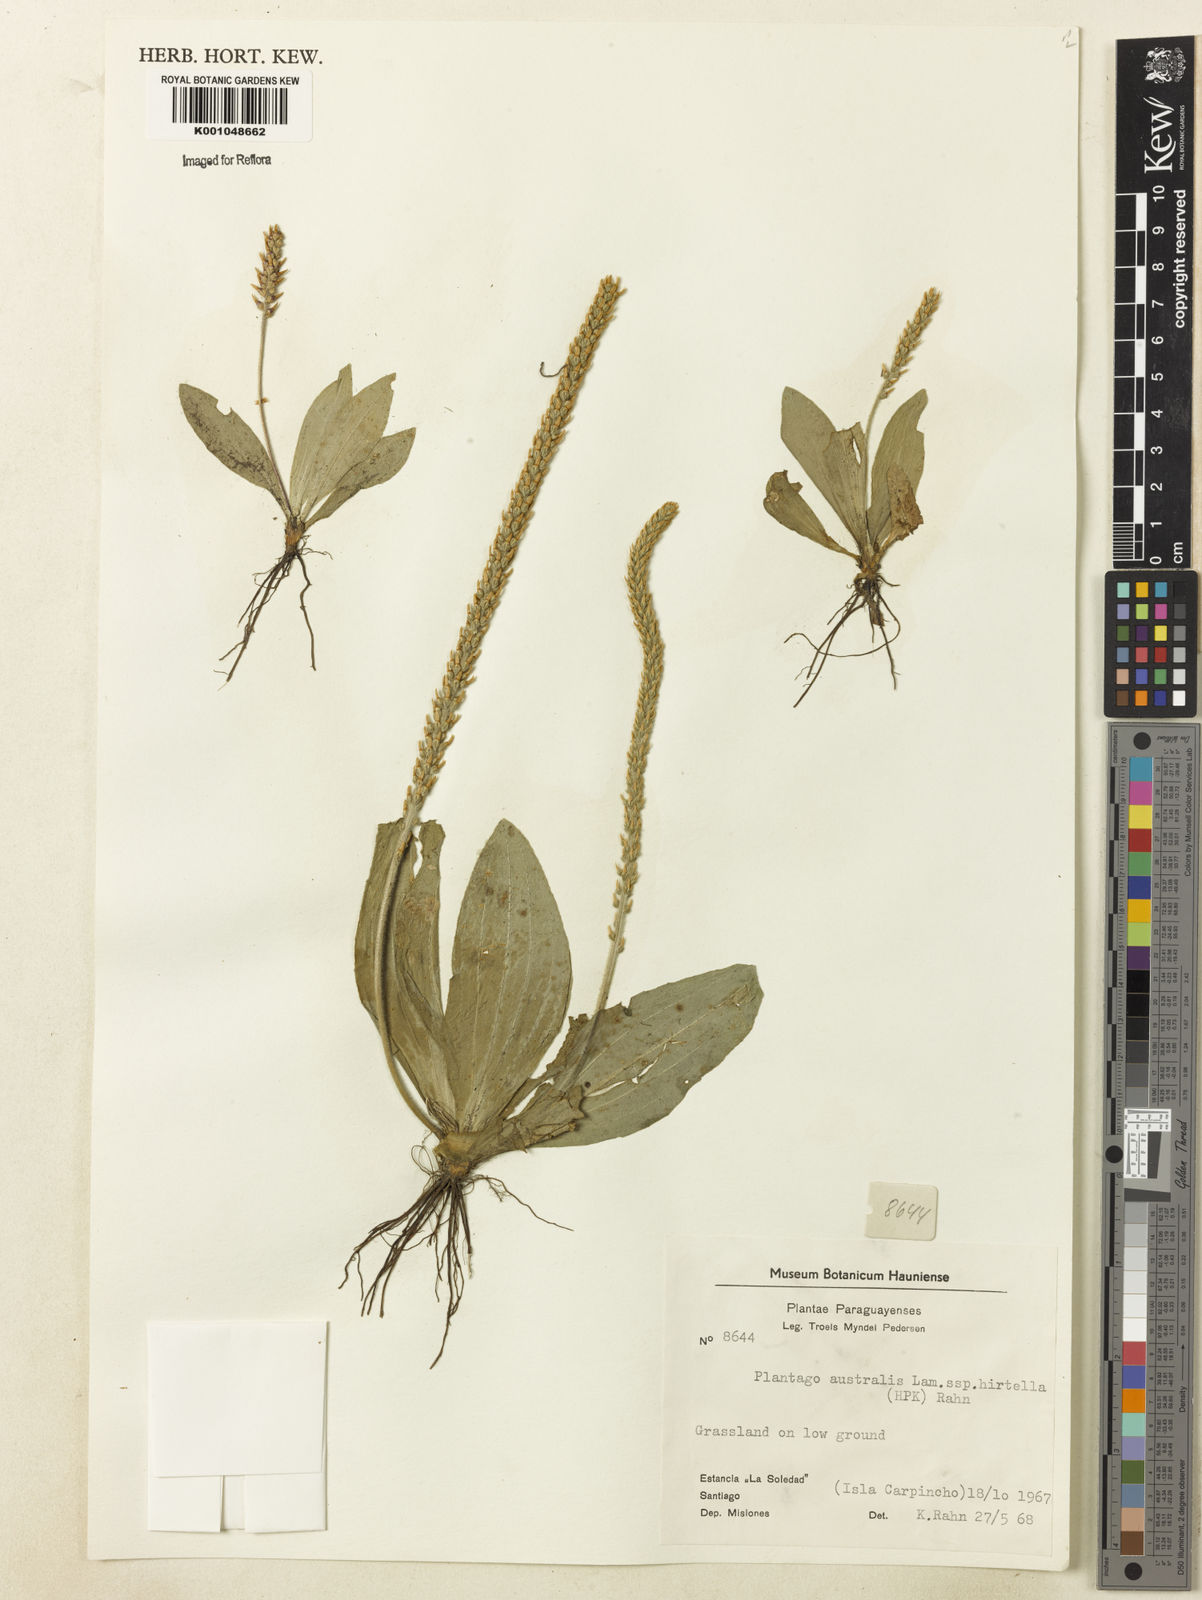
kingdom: Plantae
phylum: Tracheophyta
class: Magnoliopsida
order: Lamiales
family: Plantaginaceae
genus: Plantago
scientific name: Plantago australis
